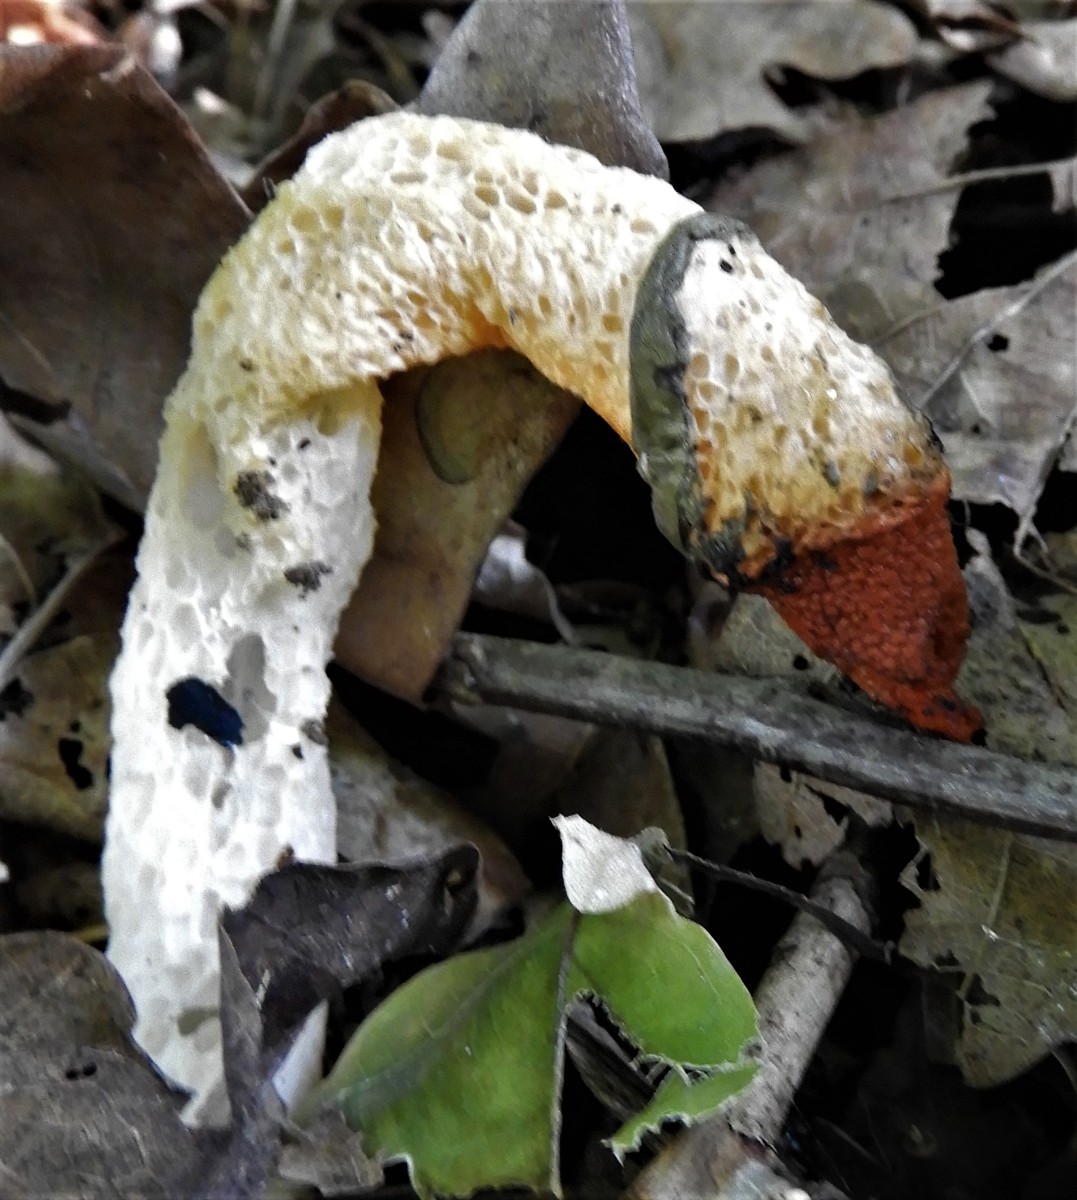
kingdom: Fungi
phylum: Basidiomycota
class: Agaricomycetes
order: Phallales
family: Phallaceae
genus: Mutinus
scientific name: Mutinus caninus
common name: hunde-stinksvamp
